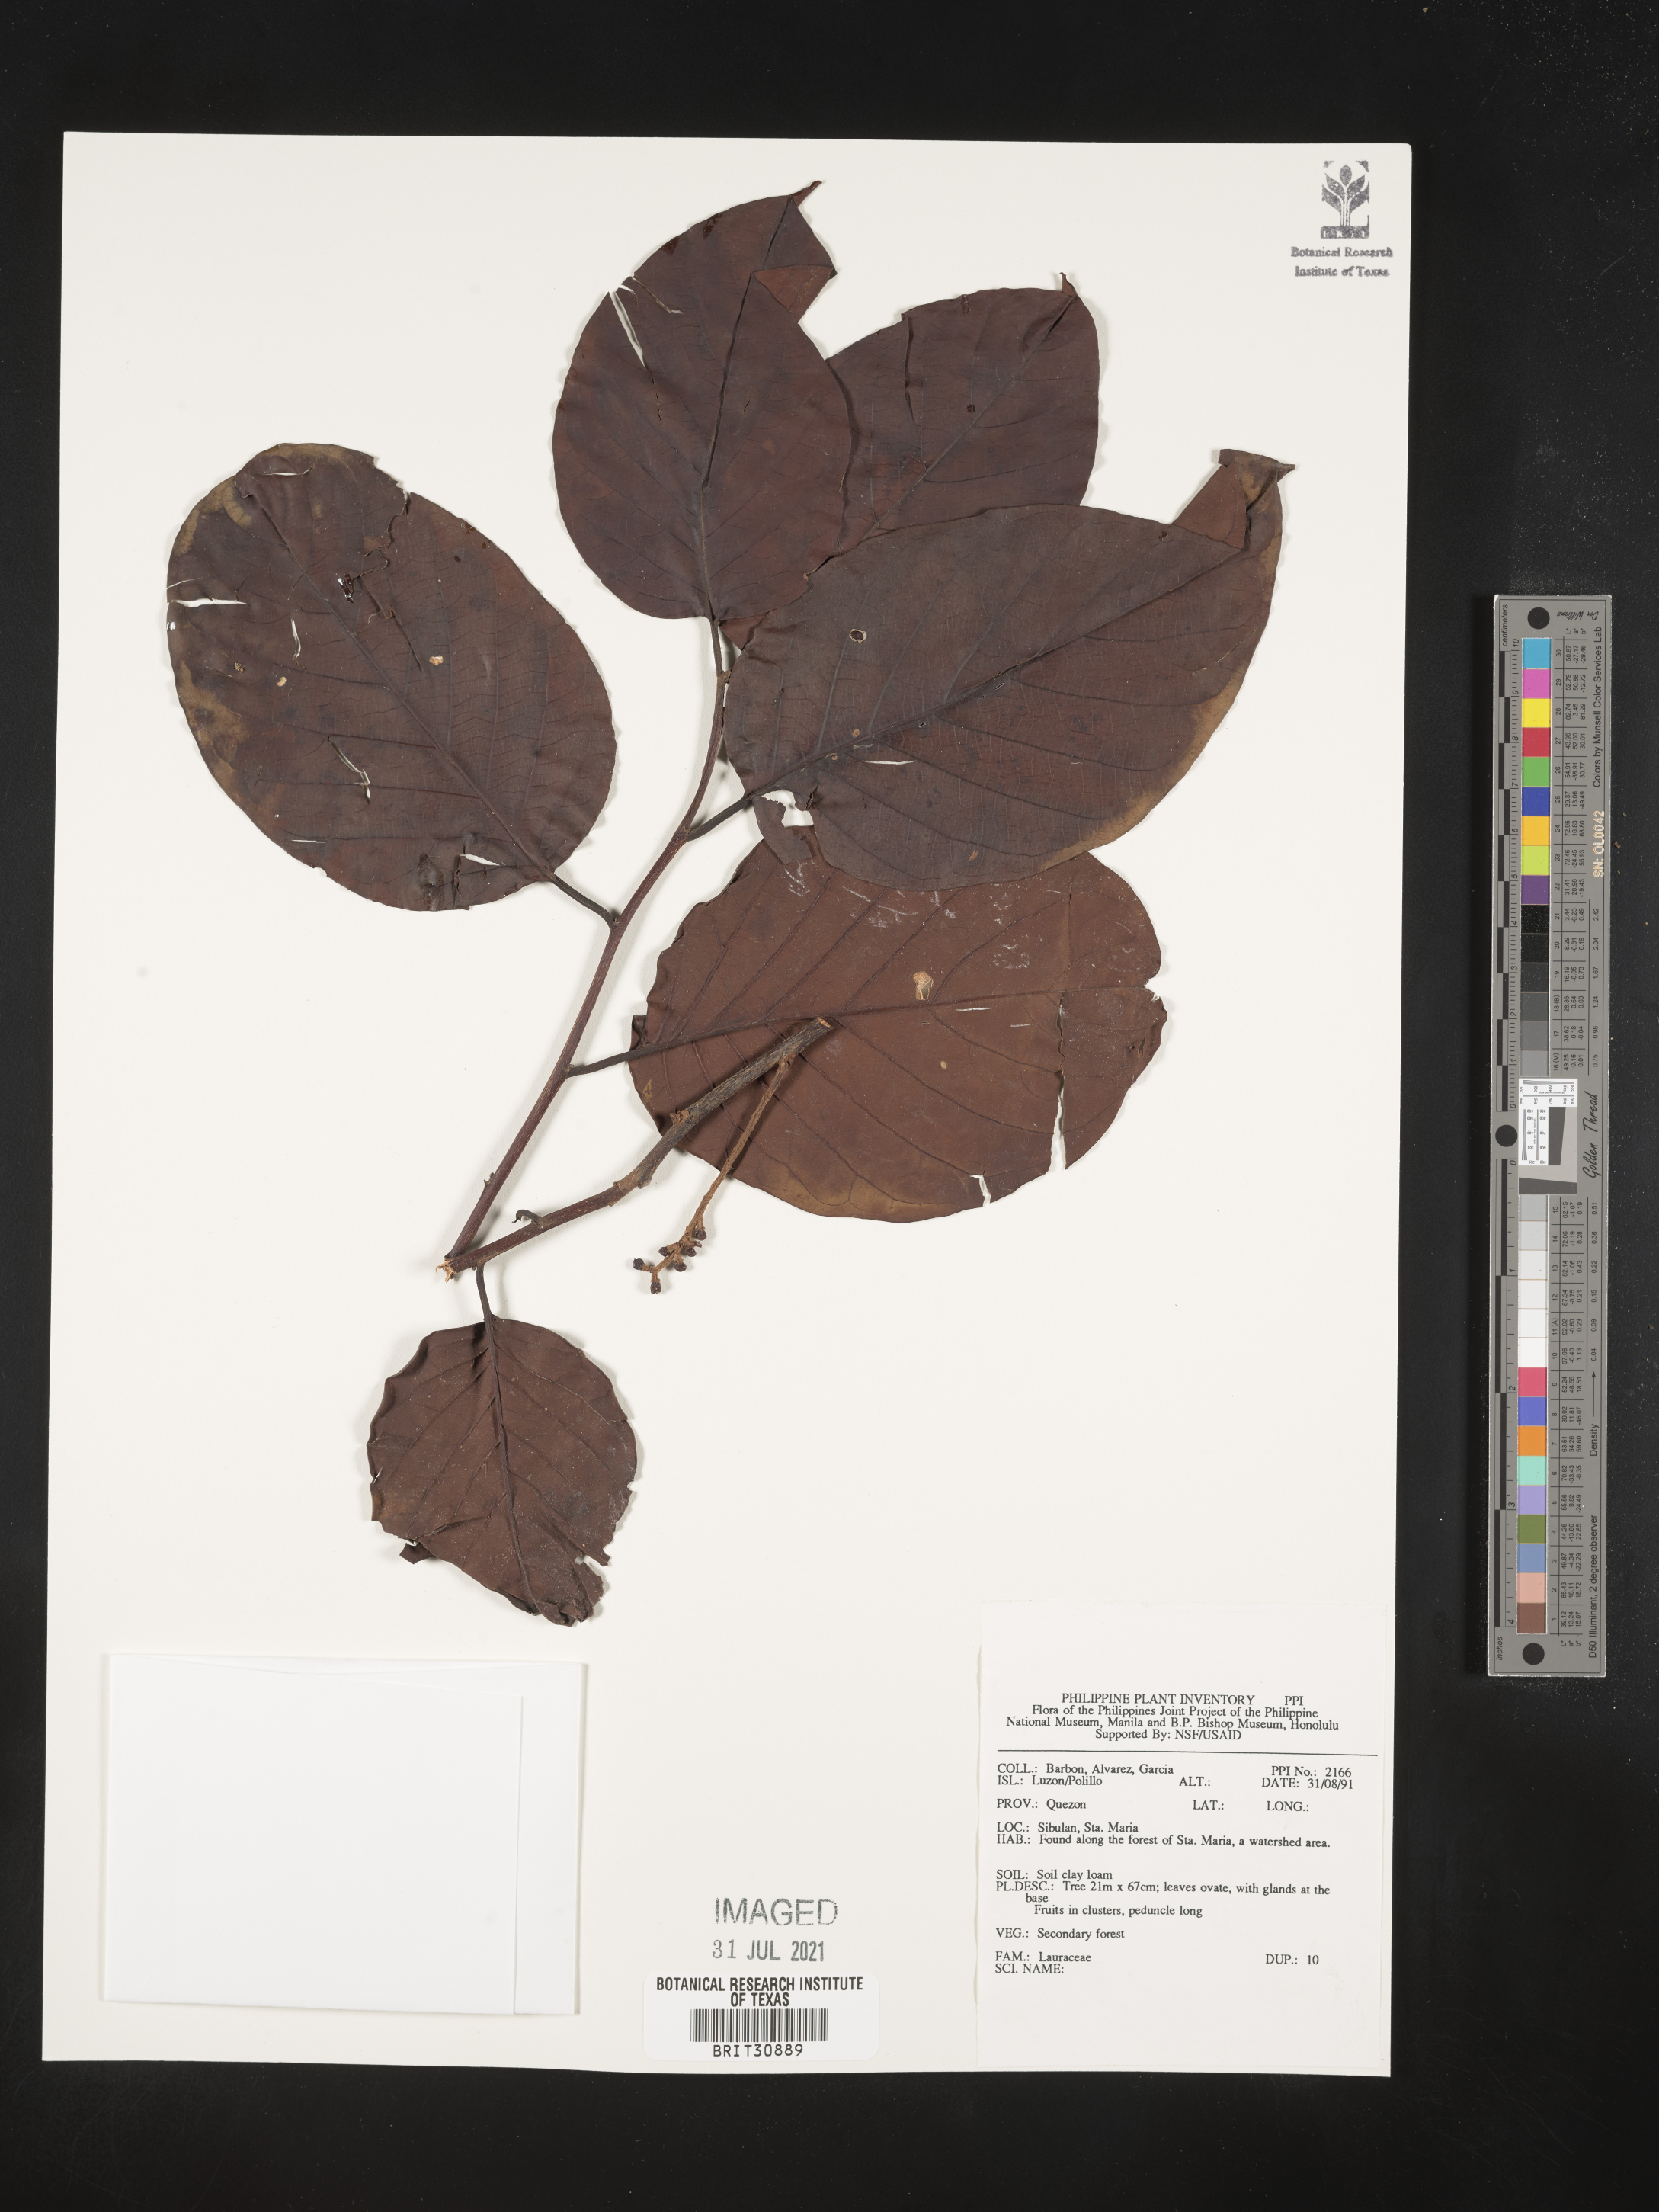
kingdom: Plantae
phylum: Tracheophyta
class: Magnoliopsida
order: Laurales
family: Lauraceae
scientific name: Lauraceae
